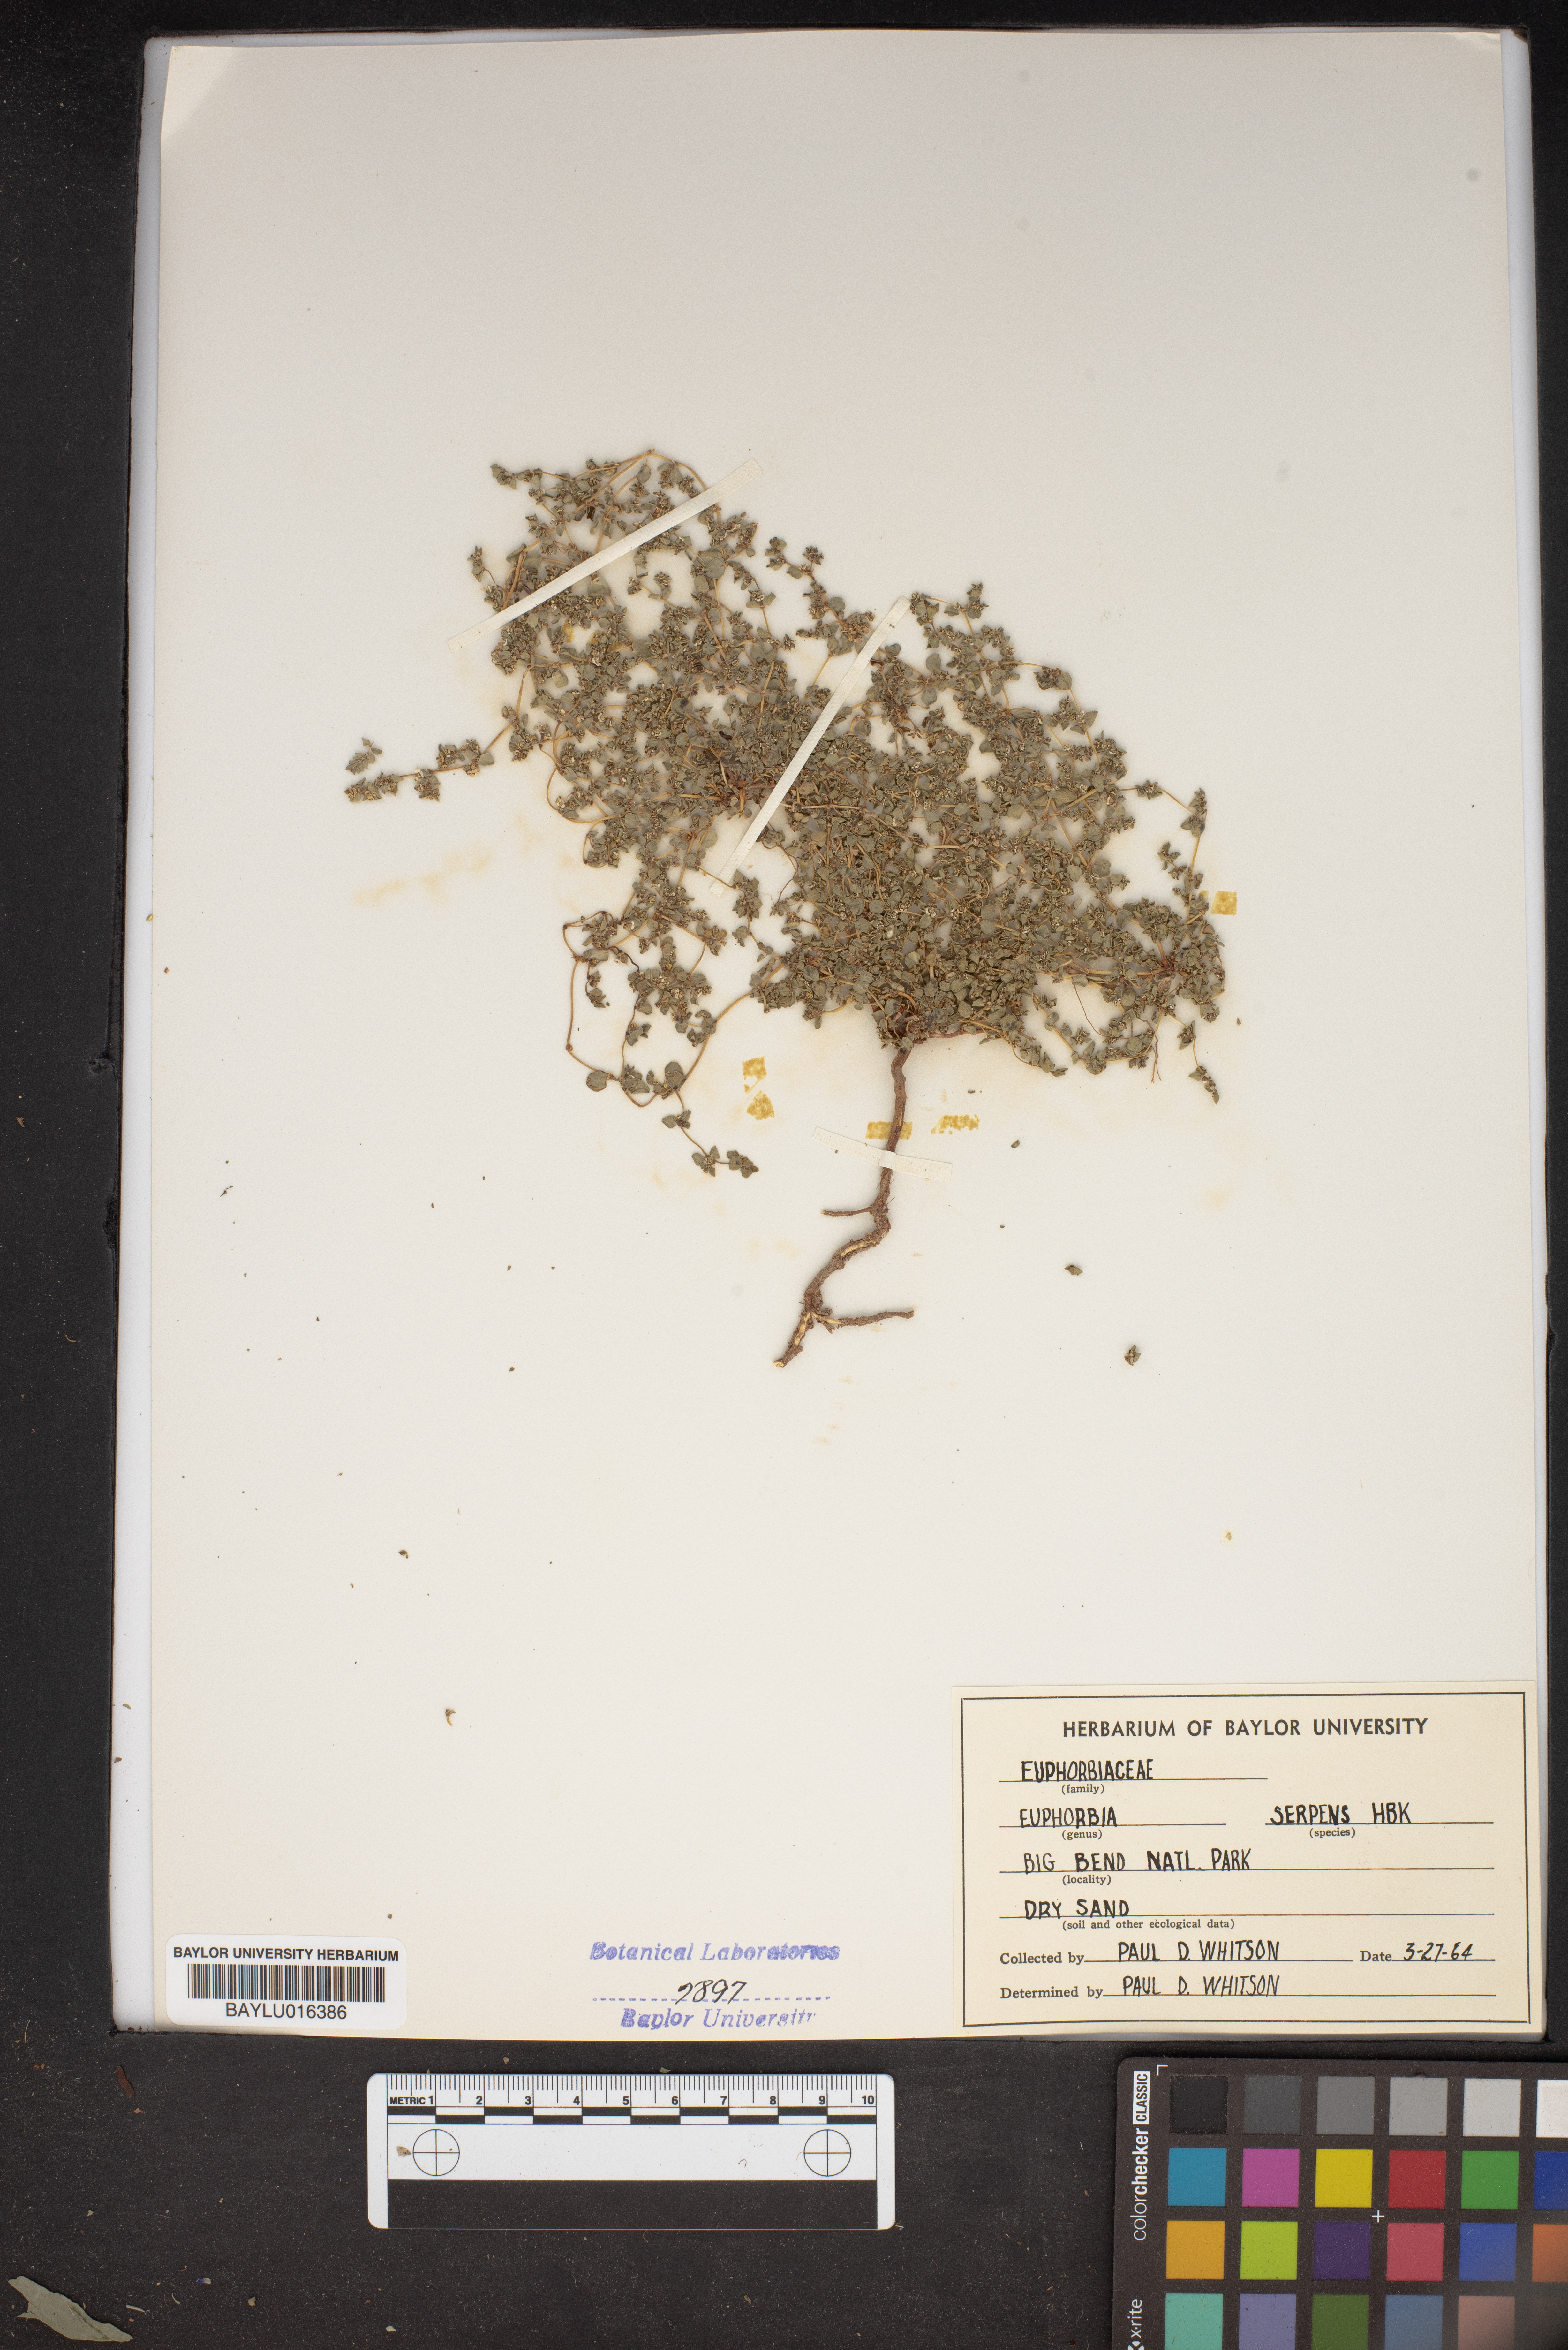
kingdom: Plantae
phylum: Tracheophyta
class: Magnoliopsida
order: Malpighiales
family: Euphorbiaceae
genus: Euphorbia
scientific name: Euphorbia serpens
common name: Matted sandmat
